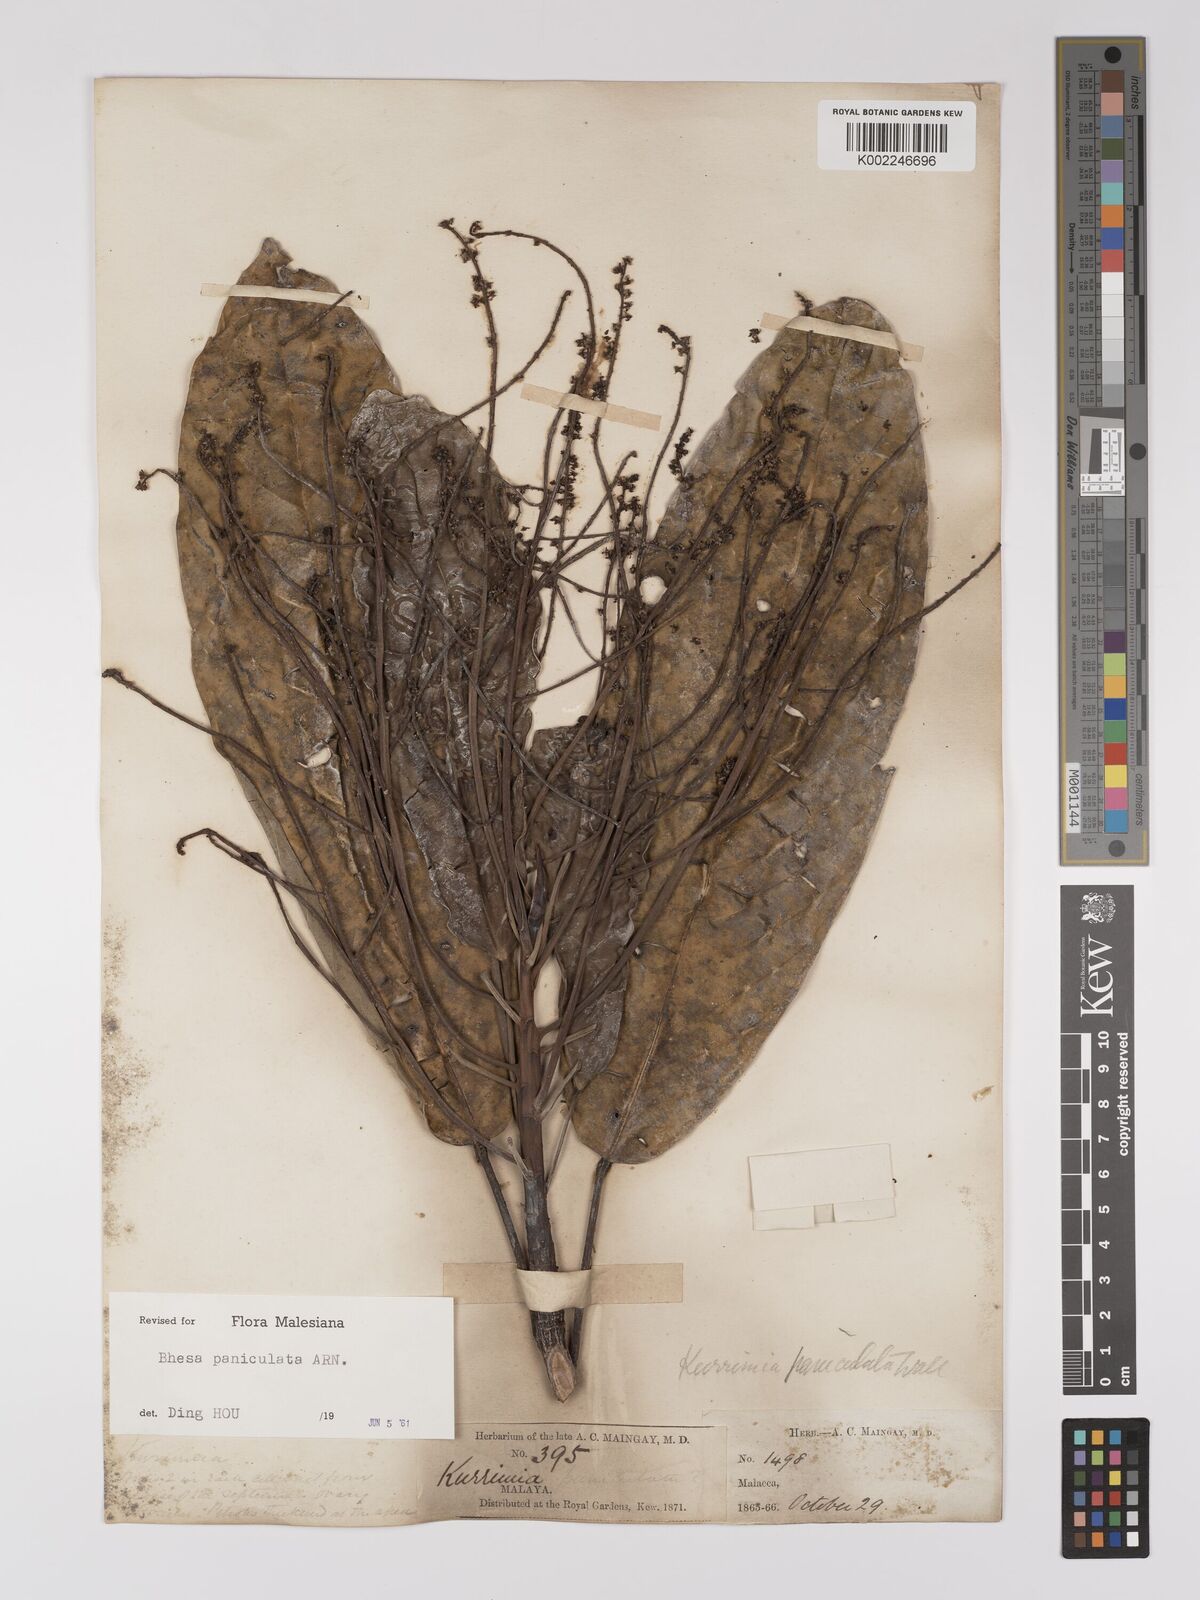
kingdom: Plantae
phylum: Tracheophyta
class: Magnoliopsida
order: Malpighiales
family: Centroplacaceae
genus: Bhesa
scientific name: Bhesa paniculata
